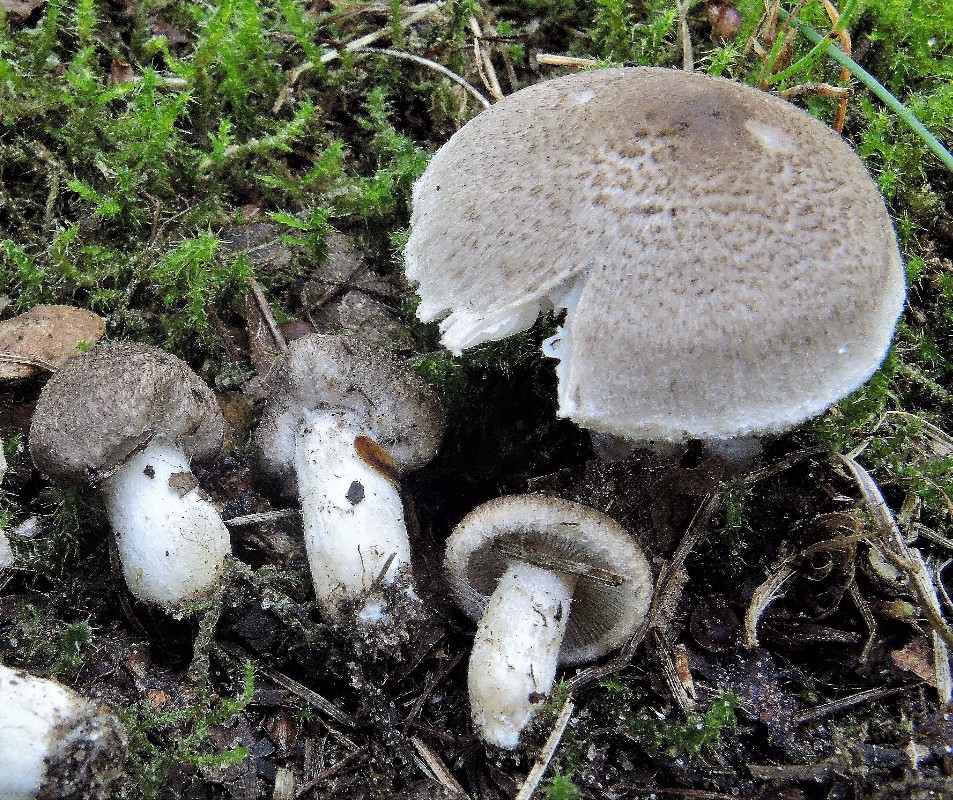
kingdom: Fungi
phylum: Basidiomycota
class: Agaricomycetes
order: Agaricales
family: Tricholomataceae
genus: Tricholoma
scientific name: Tricholoma argyraceum
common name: slør-ridderhat
